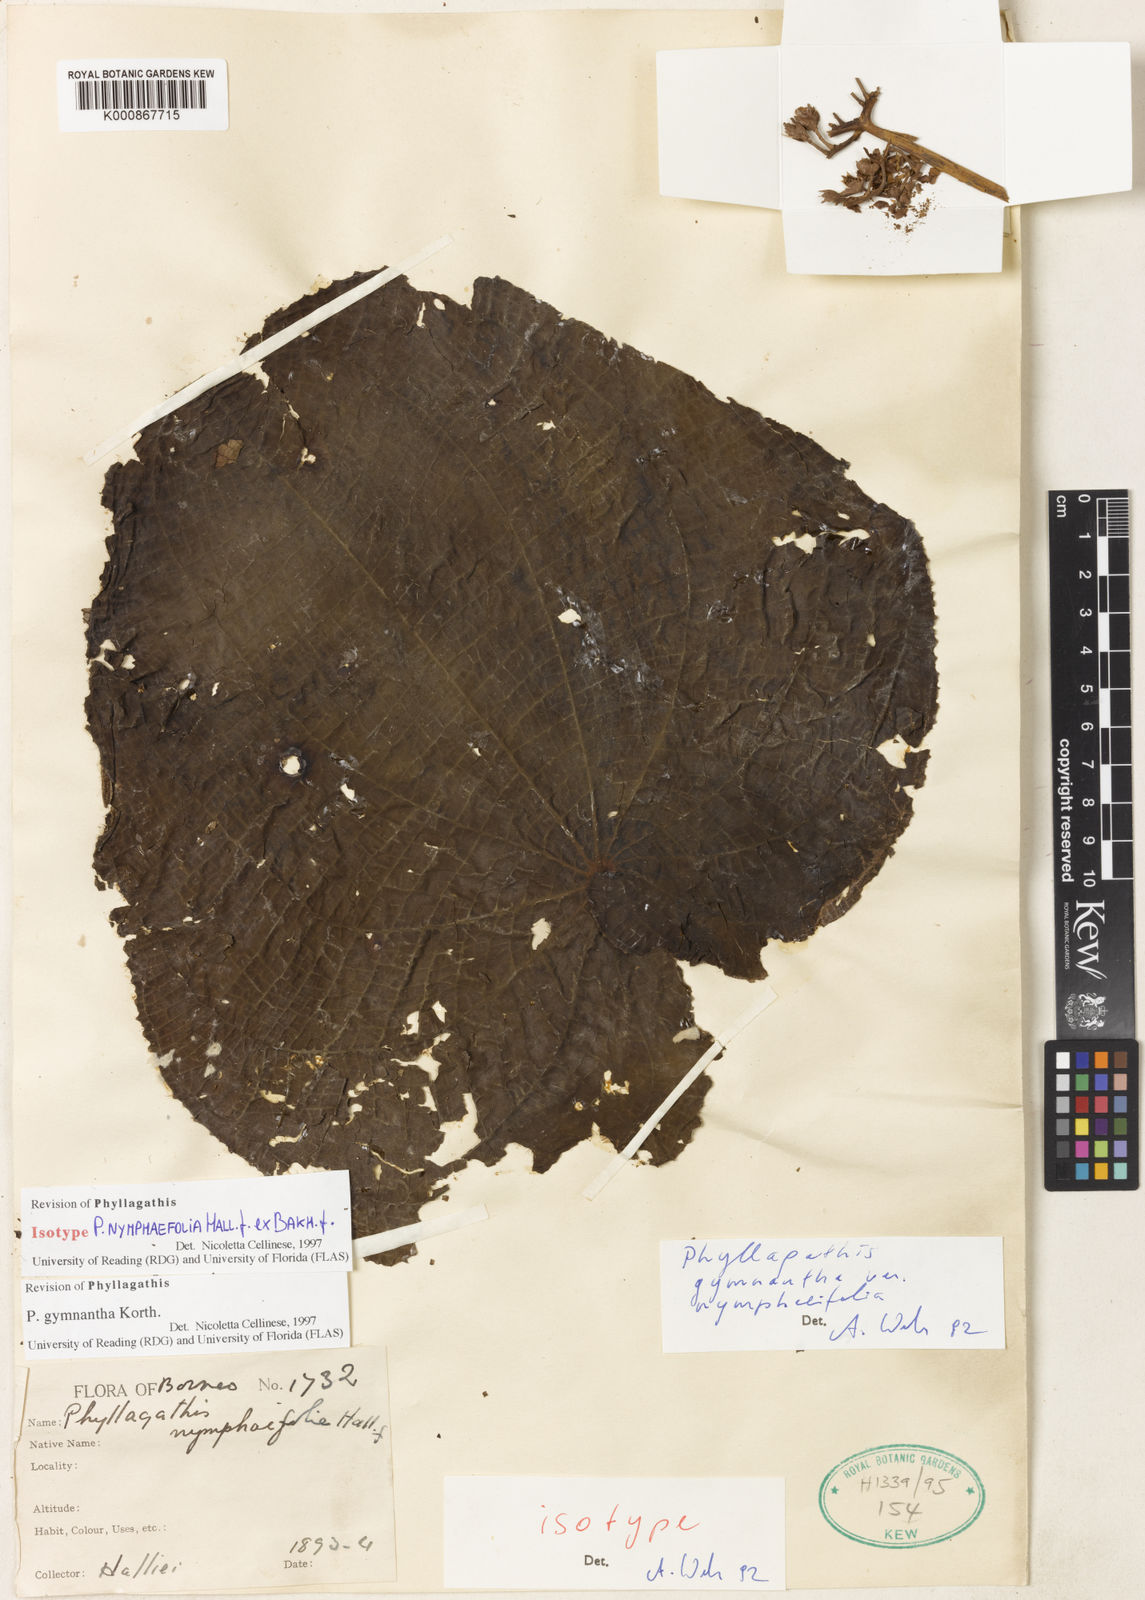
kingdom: Plantae
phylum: Tracheophyta
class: Magnoliopsida
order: Myrtales
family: Melastomataceae
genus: Phyllagathis
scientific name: Phyllagathis gymnantha
